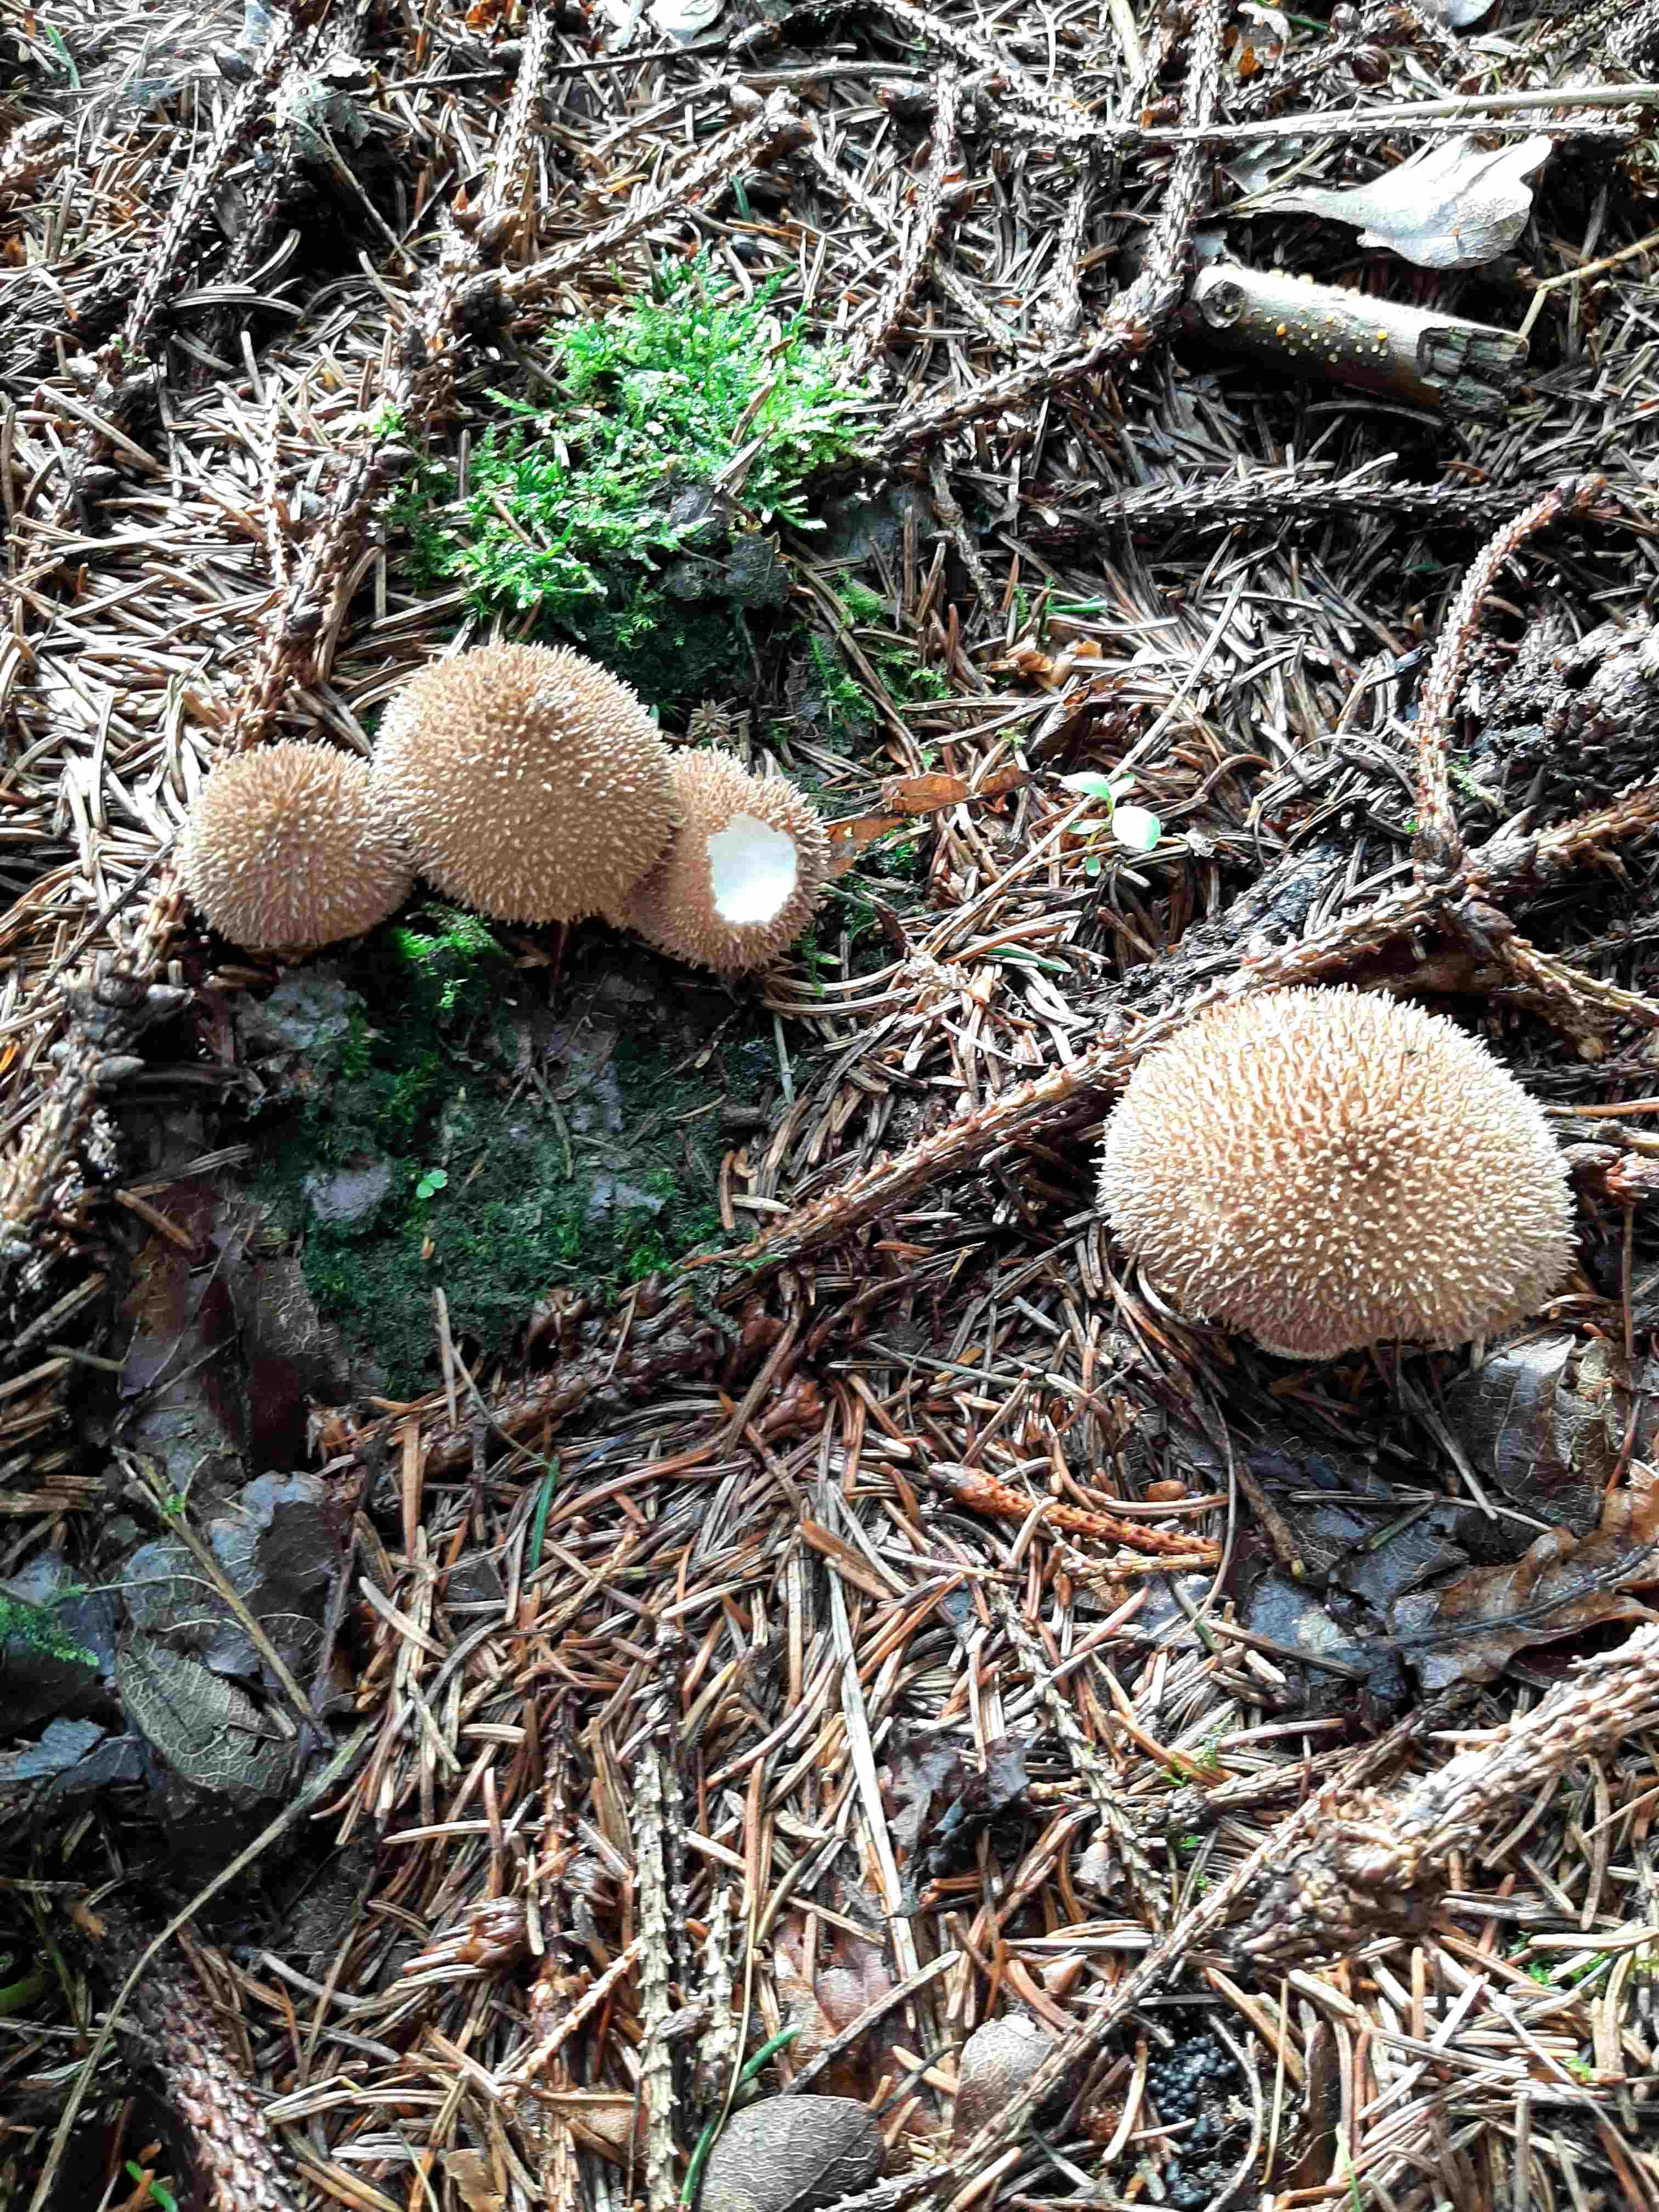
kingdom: Fungi
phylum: Basidiomycota
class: Agaricomycetes
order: Agaricales
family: Lycoperdaceae
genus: Lycoperdon
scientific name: Lycoperdon nigrescens
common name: sortagtig støvbold
